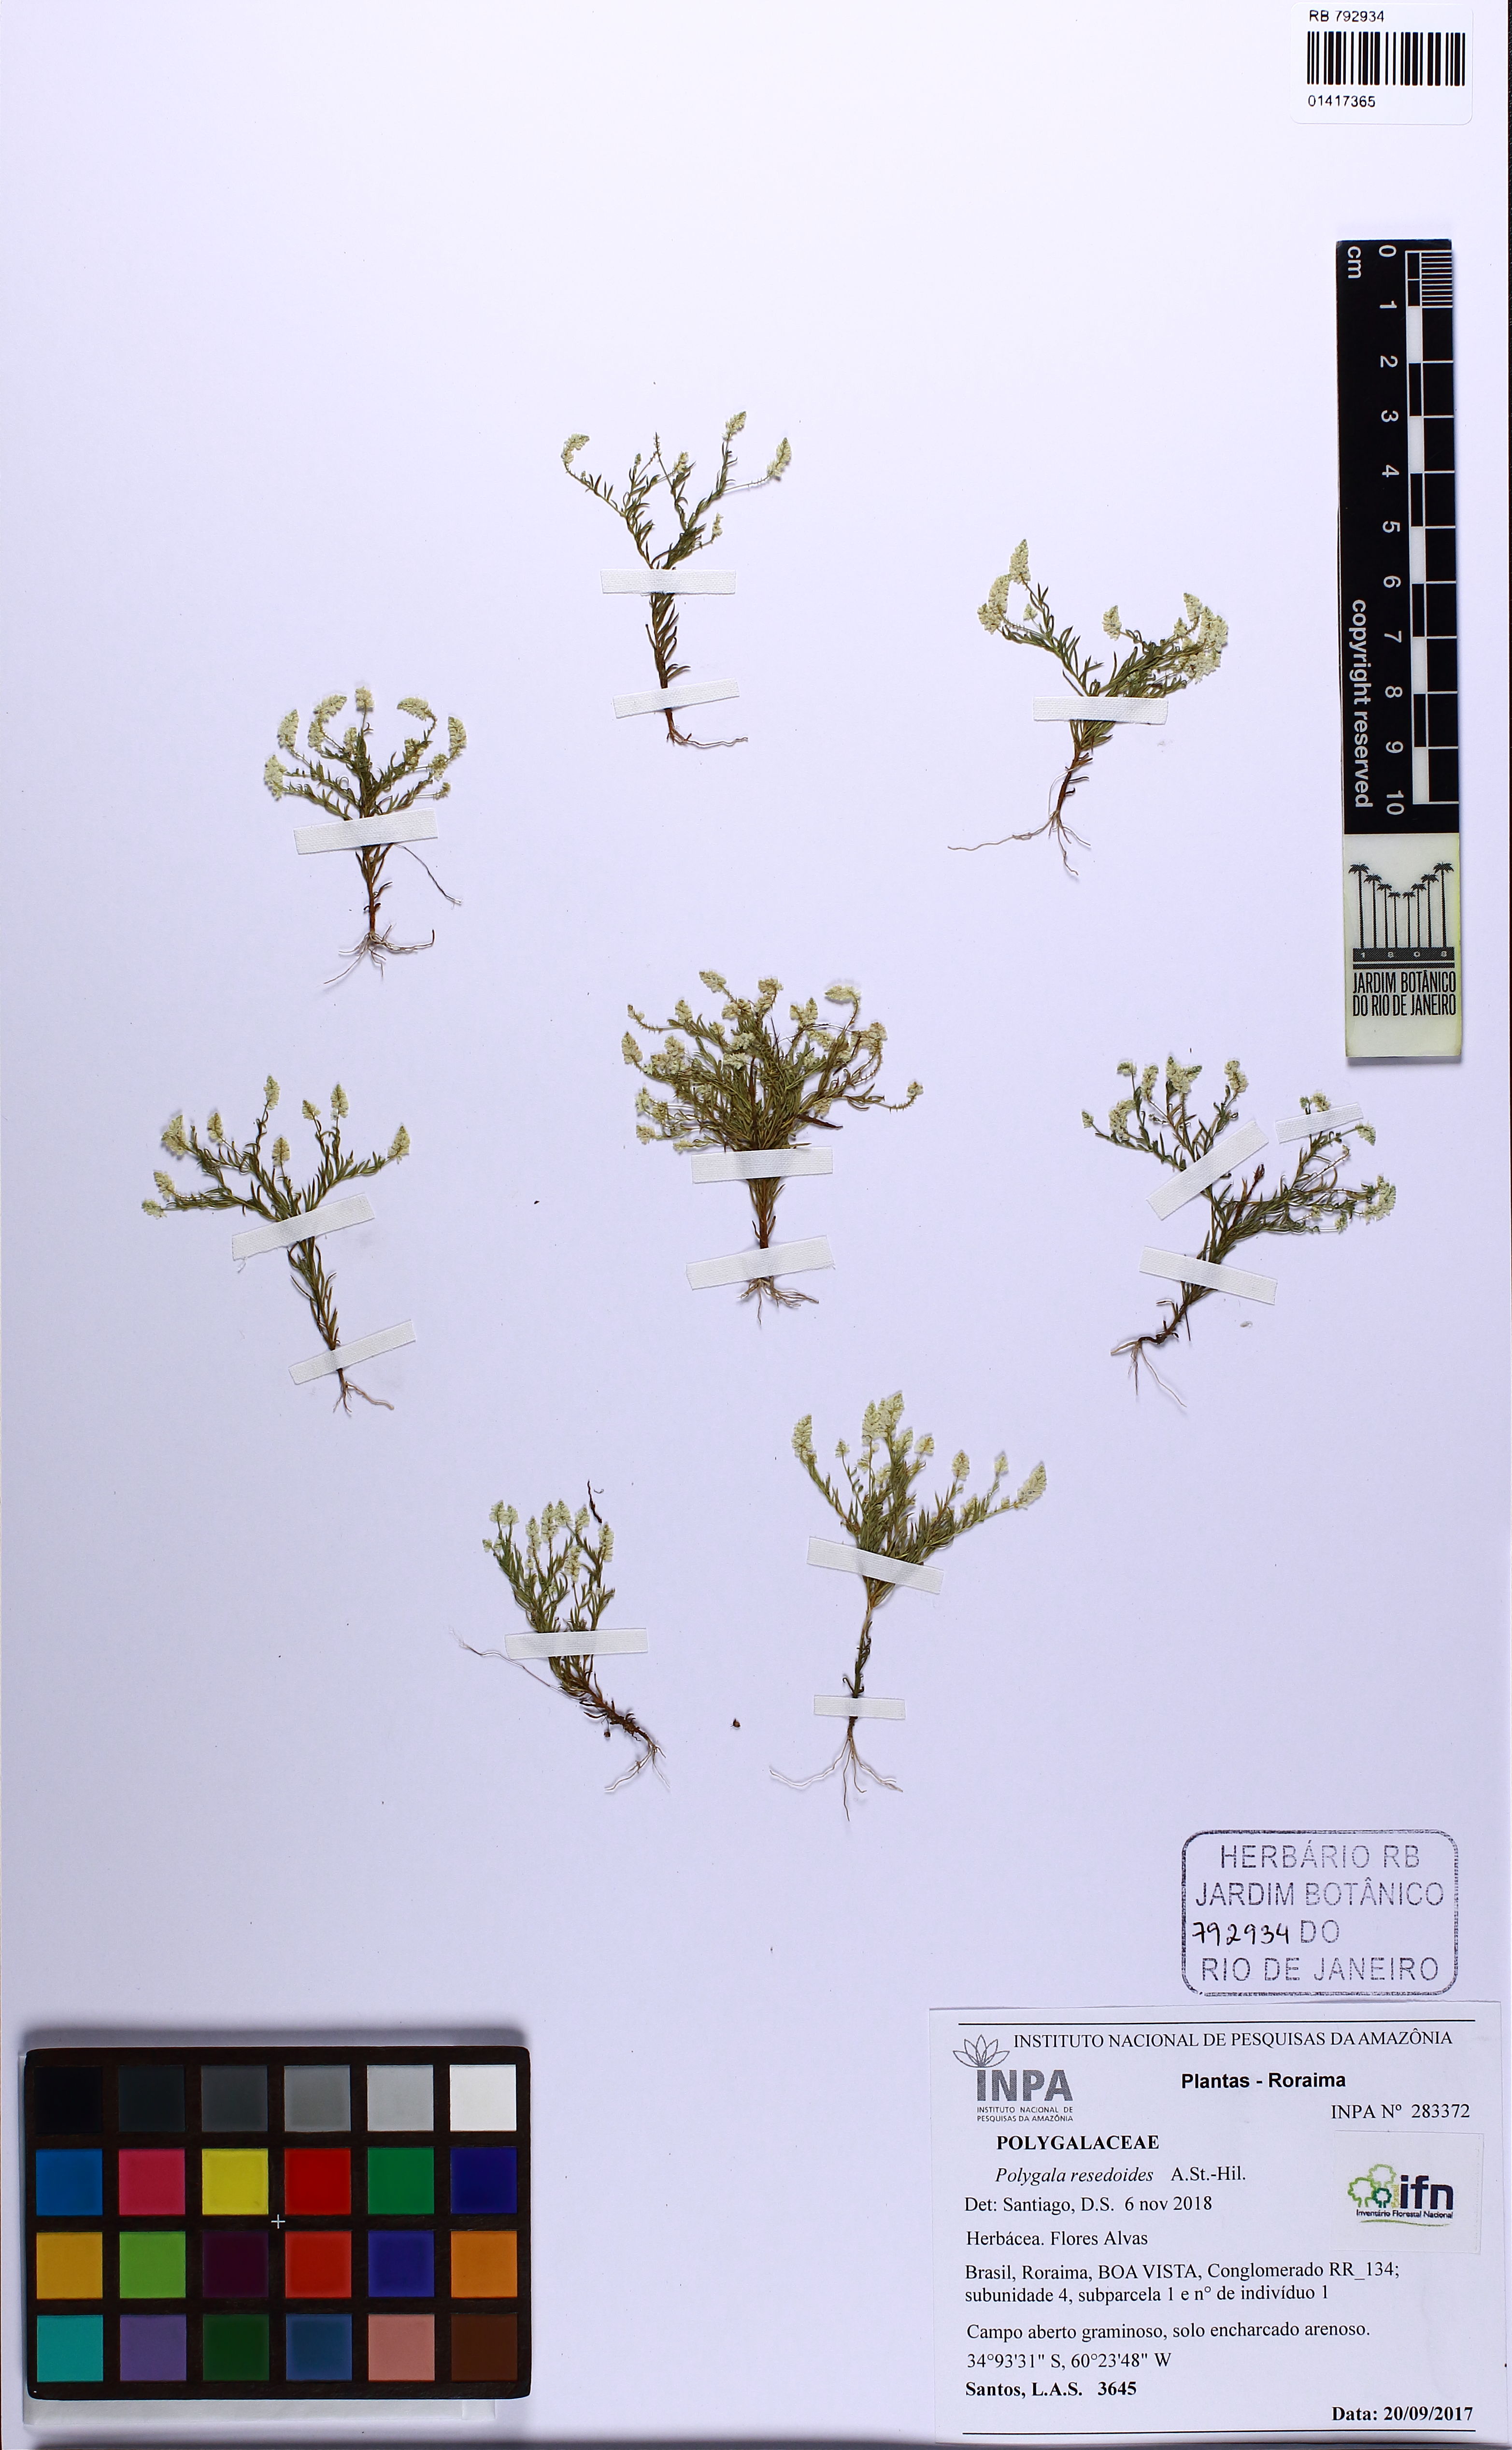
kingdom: Plantae
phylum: Tracheophyta
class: Magnoliopsida
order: Fabales
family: Polygalaceae
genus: Polygala
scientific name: Polygala resedoides
